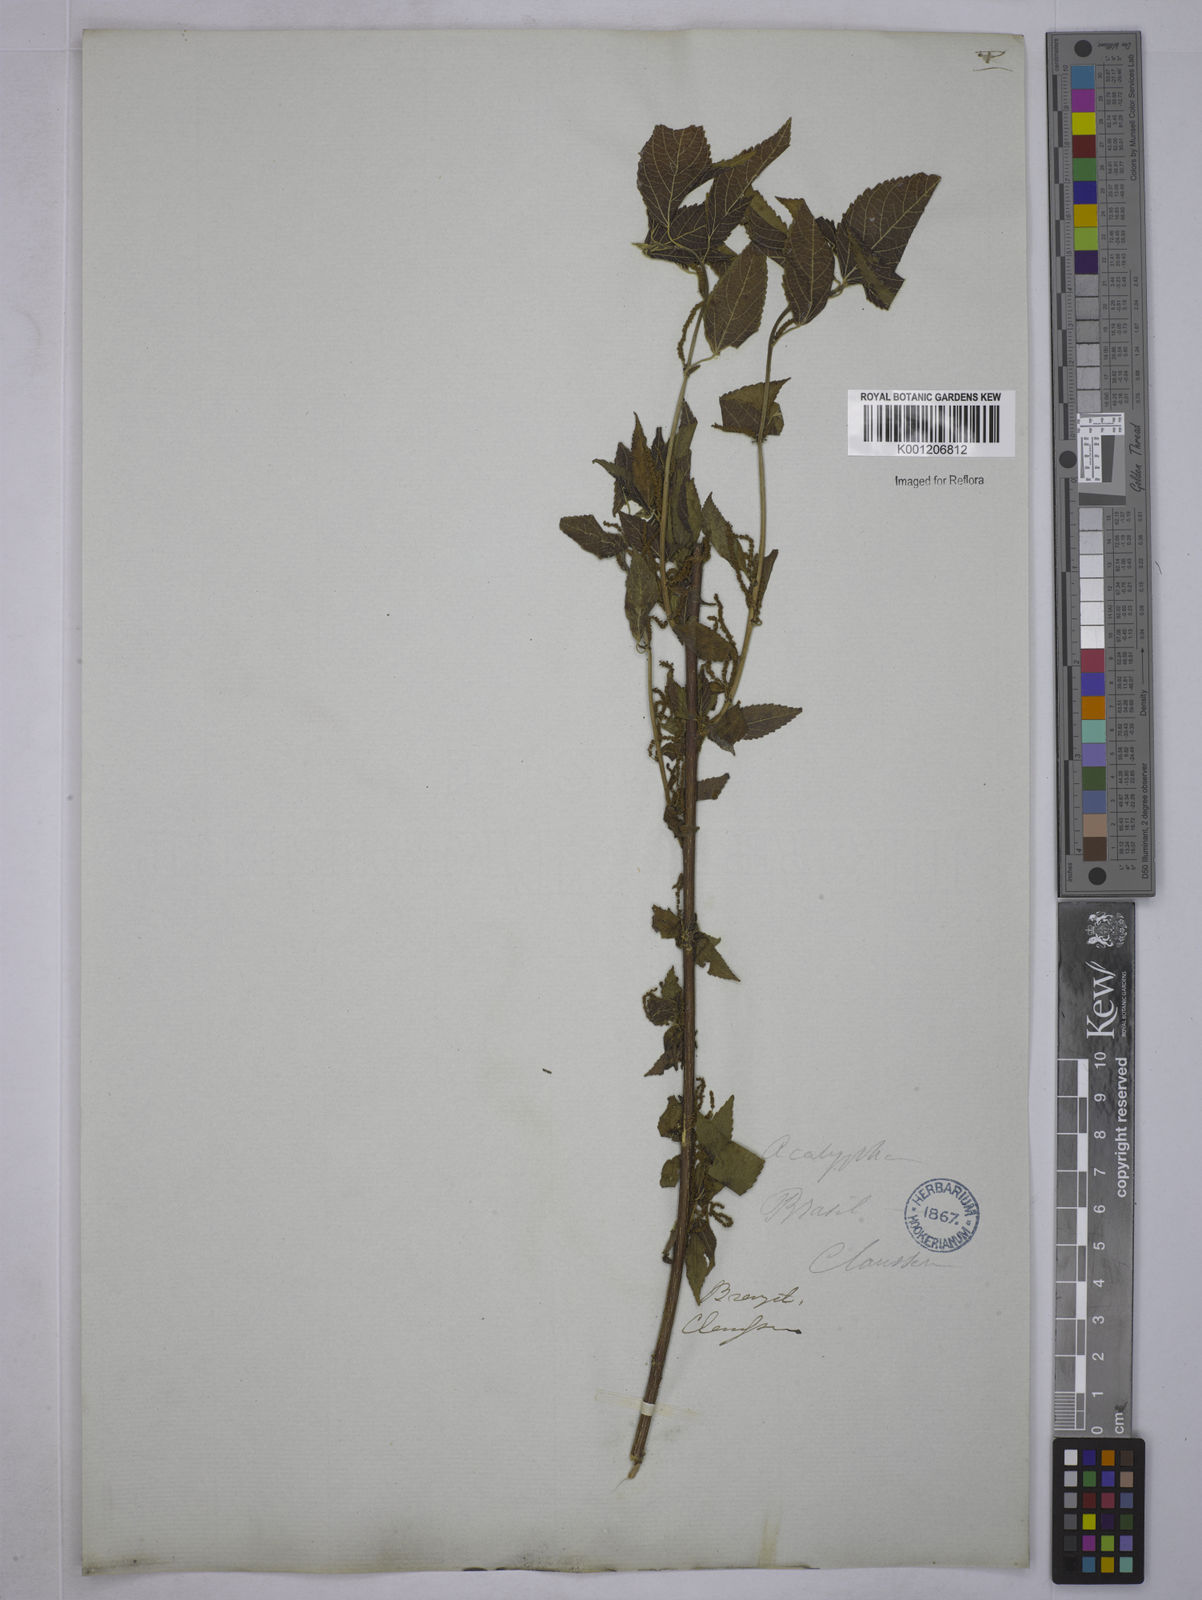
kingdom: Plantae
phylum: Tracheophyta
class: Magnoliopsida
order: Malpighiales
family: Euphorbiaceae
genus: Acalypha
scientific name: Acalypha
